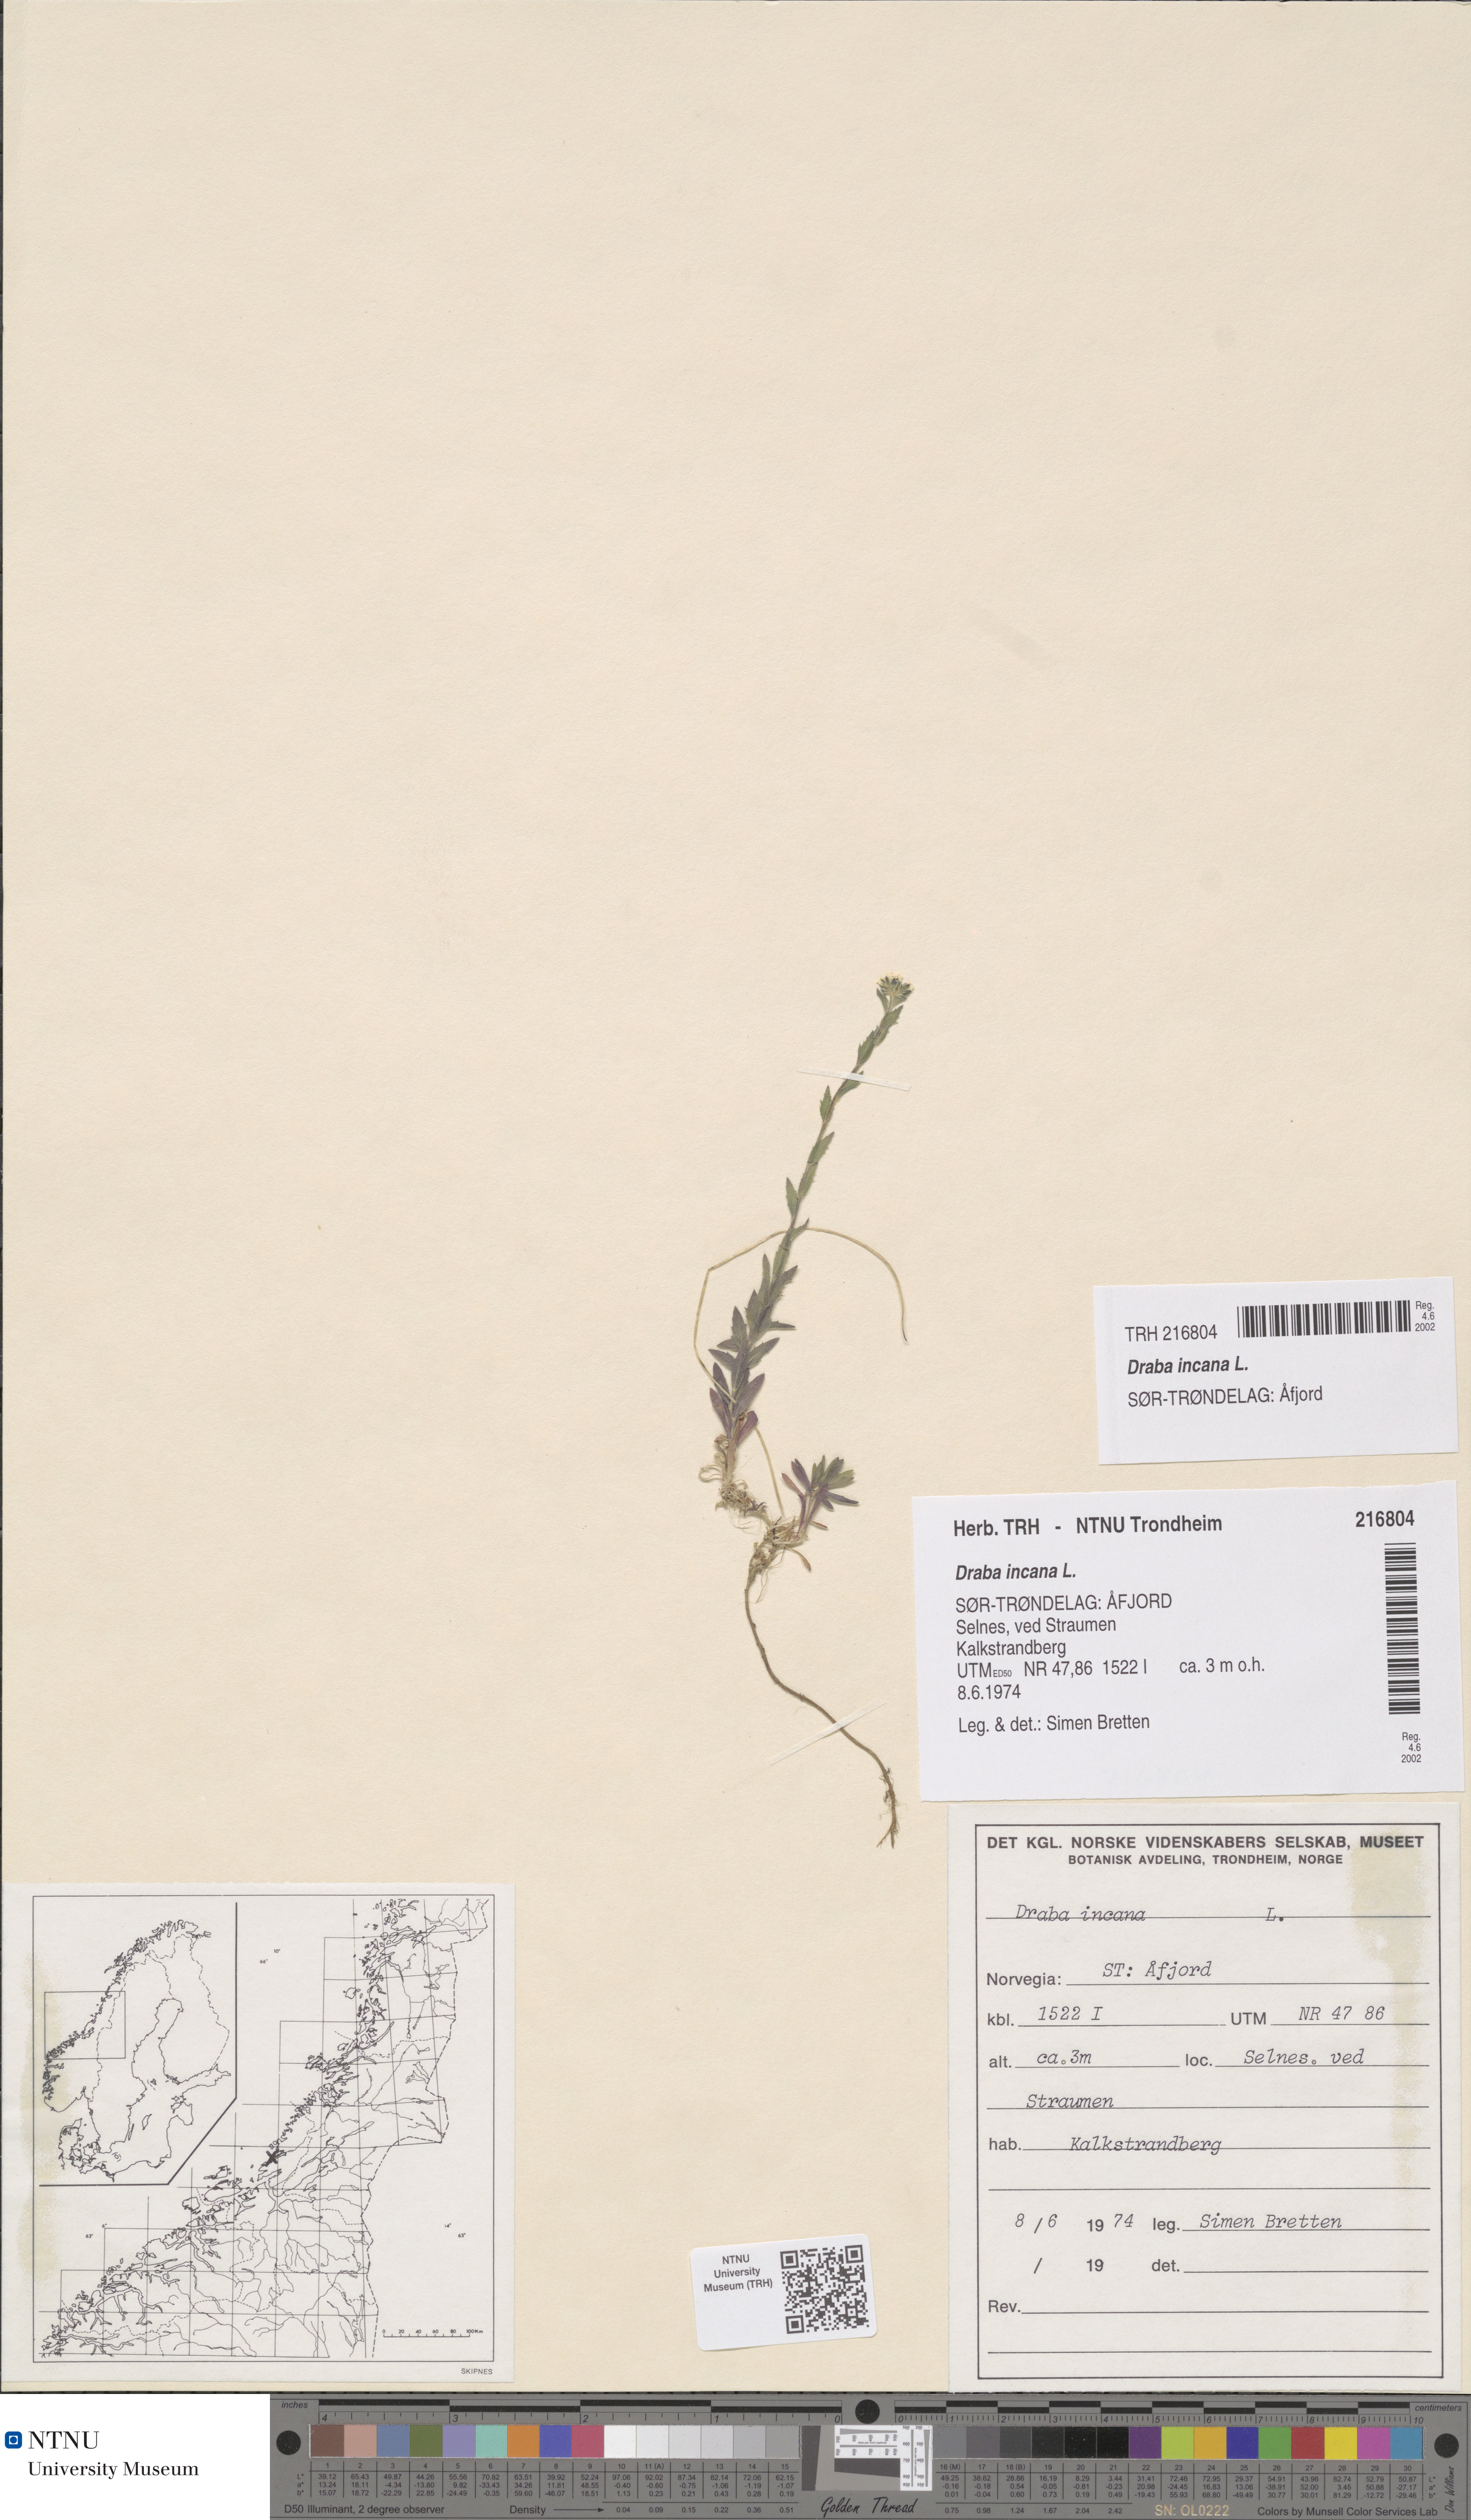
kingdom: Plantae
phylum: Tracheophyta
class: Magnoliopsida
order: Brassicales
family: Brassicaceae
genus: Draba
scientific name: Draba incana
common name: Hoary whitlow-grass
